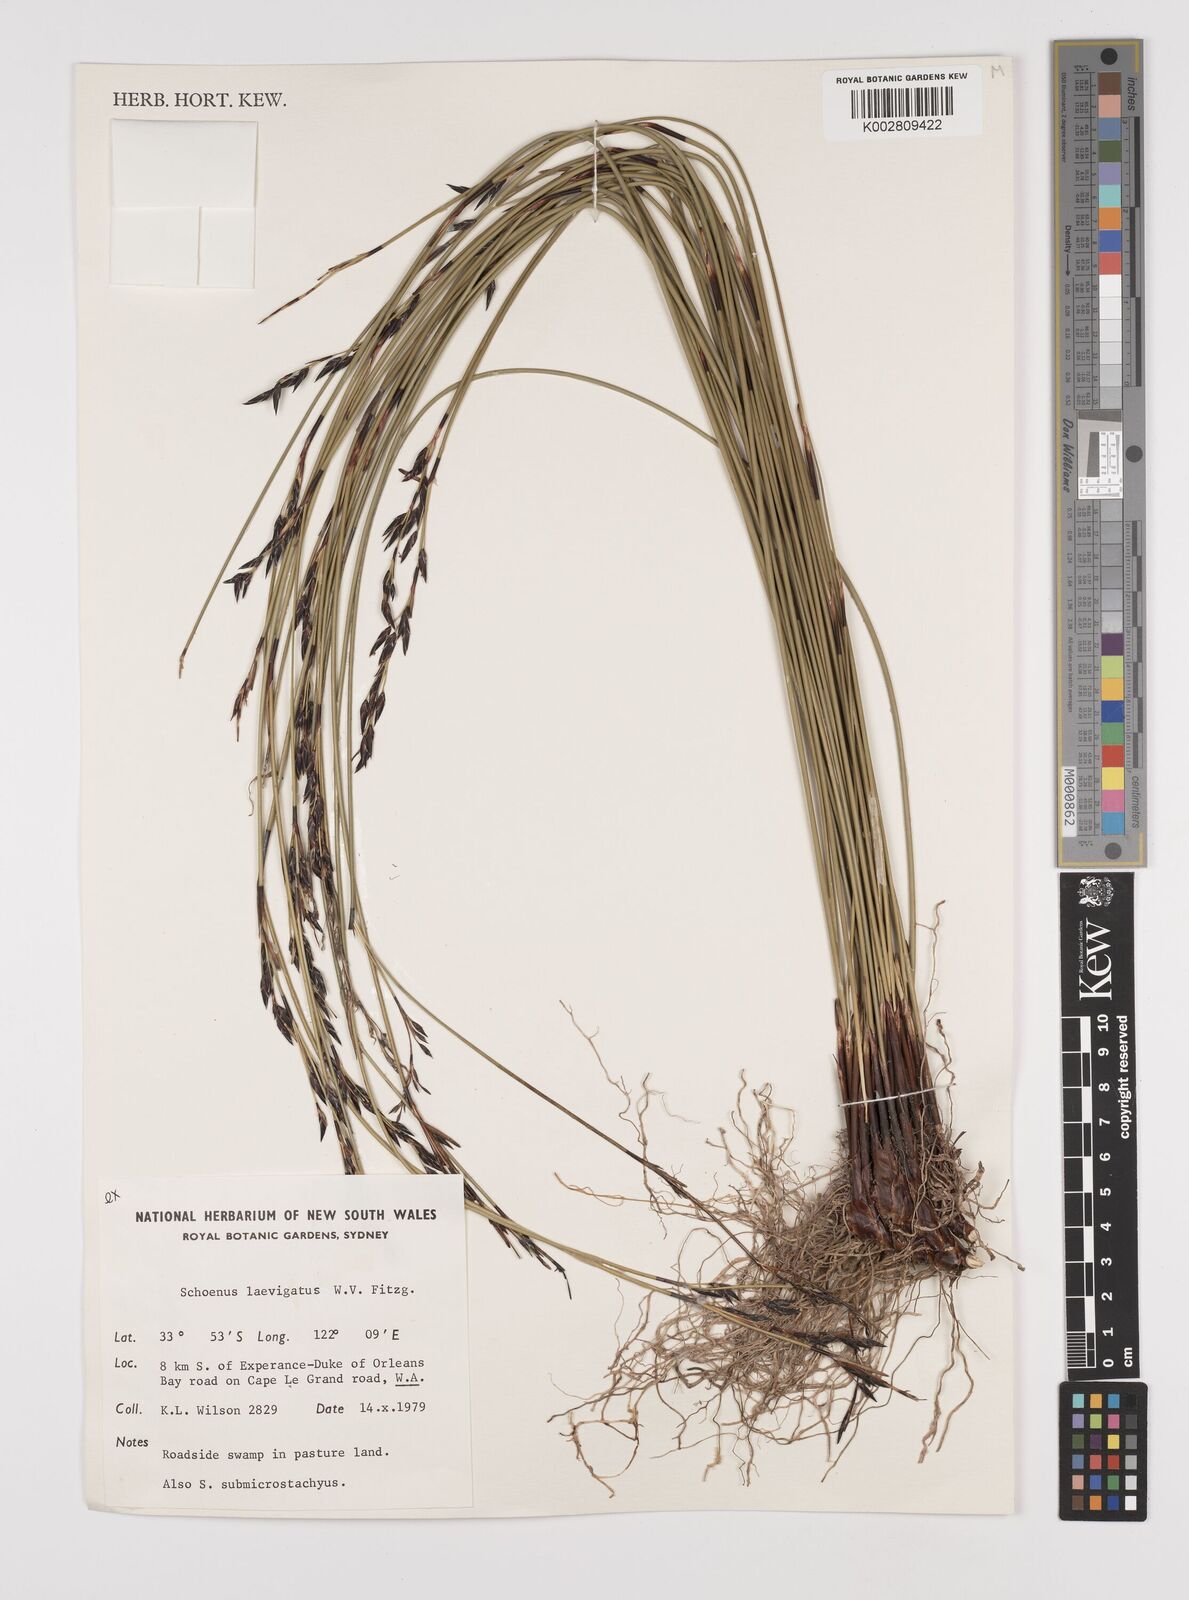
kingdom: Plantae
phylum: Tracheophyta
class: Liliopsida
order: Poales
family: Cyperaceae
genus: Schoenus
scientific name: Schoenus laevigatus
